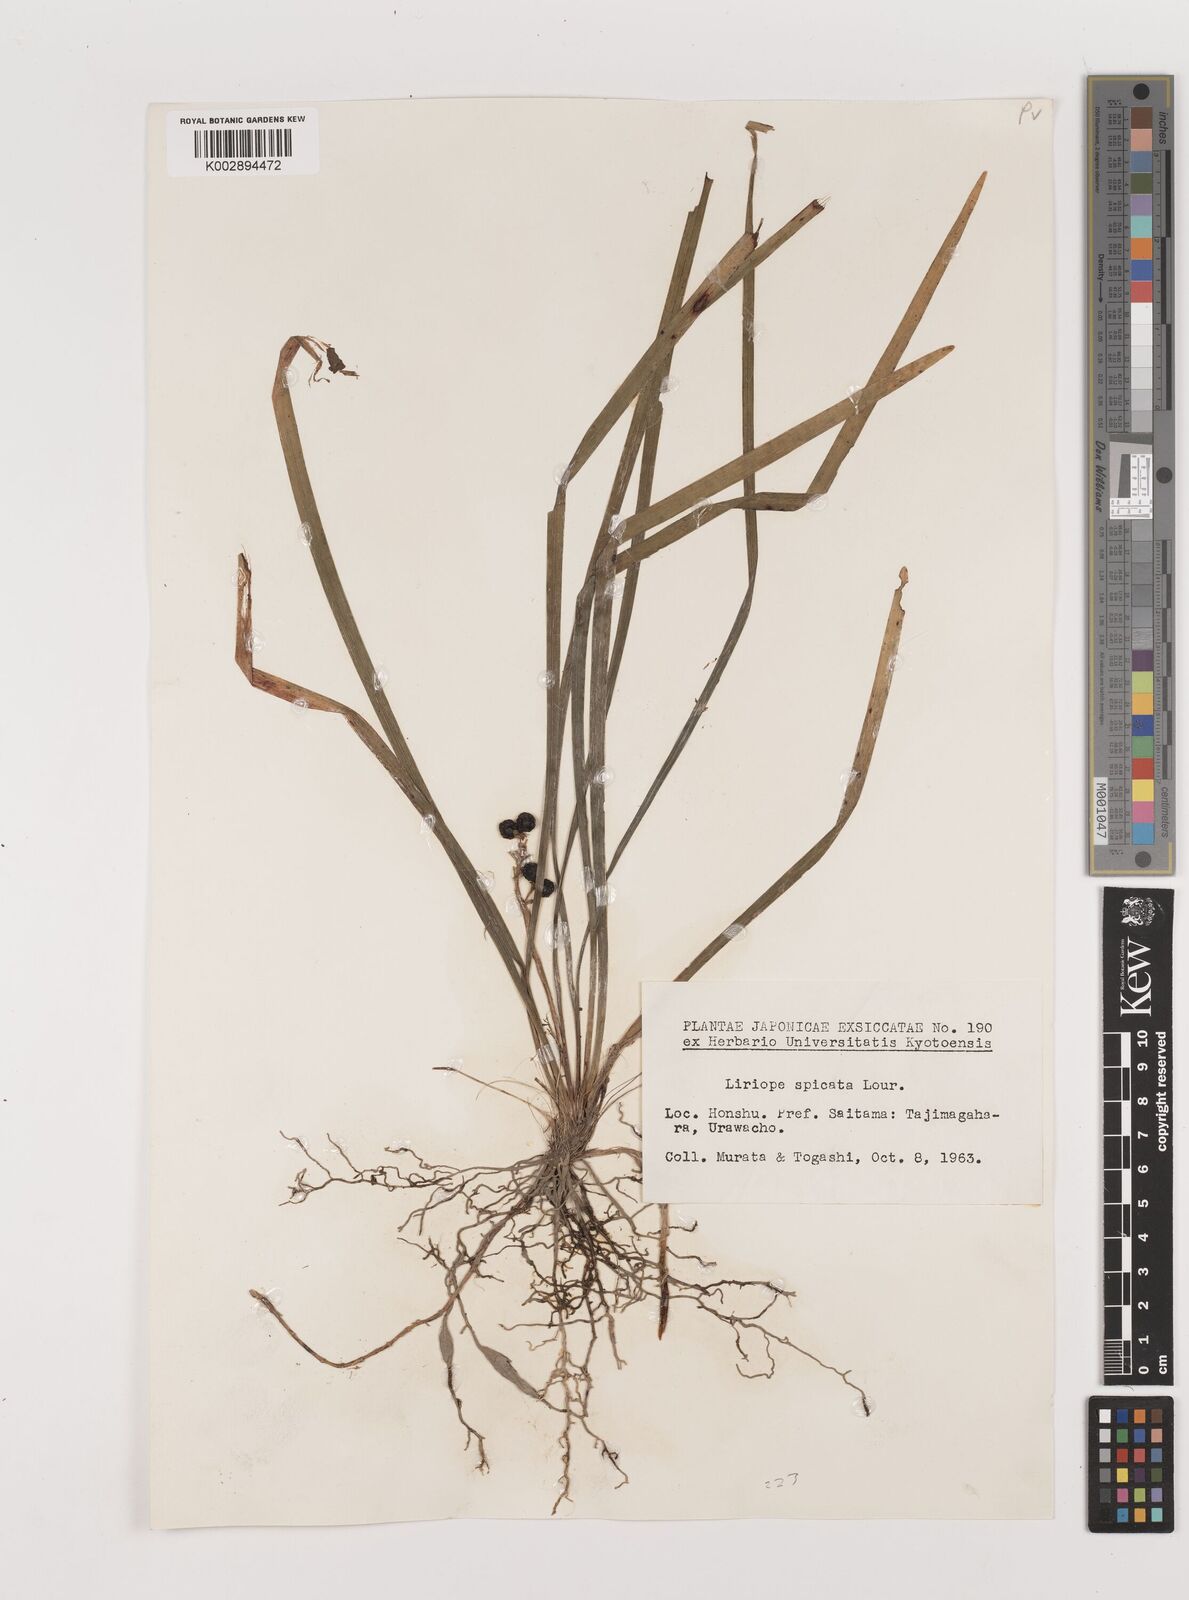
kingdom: Plantae
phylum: Tracheophyta
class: Liliopsida
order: Asparagales
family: Asparagaceae
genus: Liriope
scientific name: Liriope muscari
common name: Big blue lilyturf
